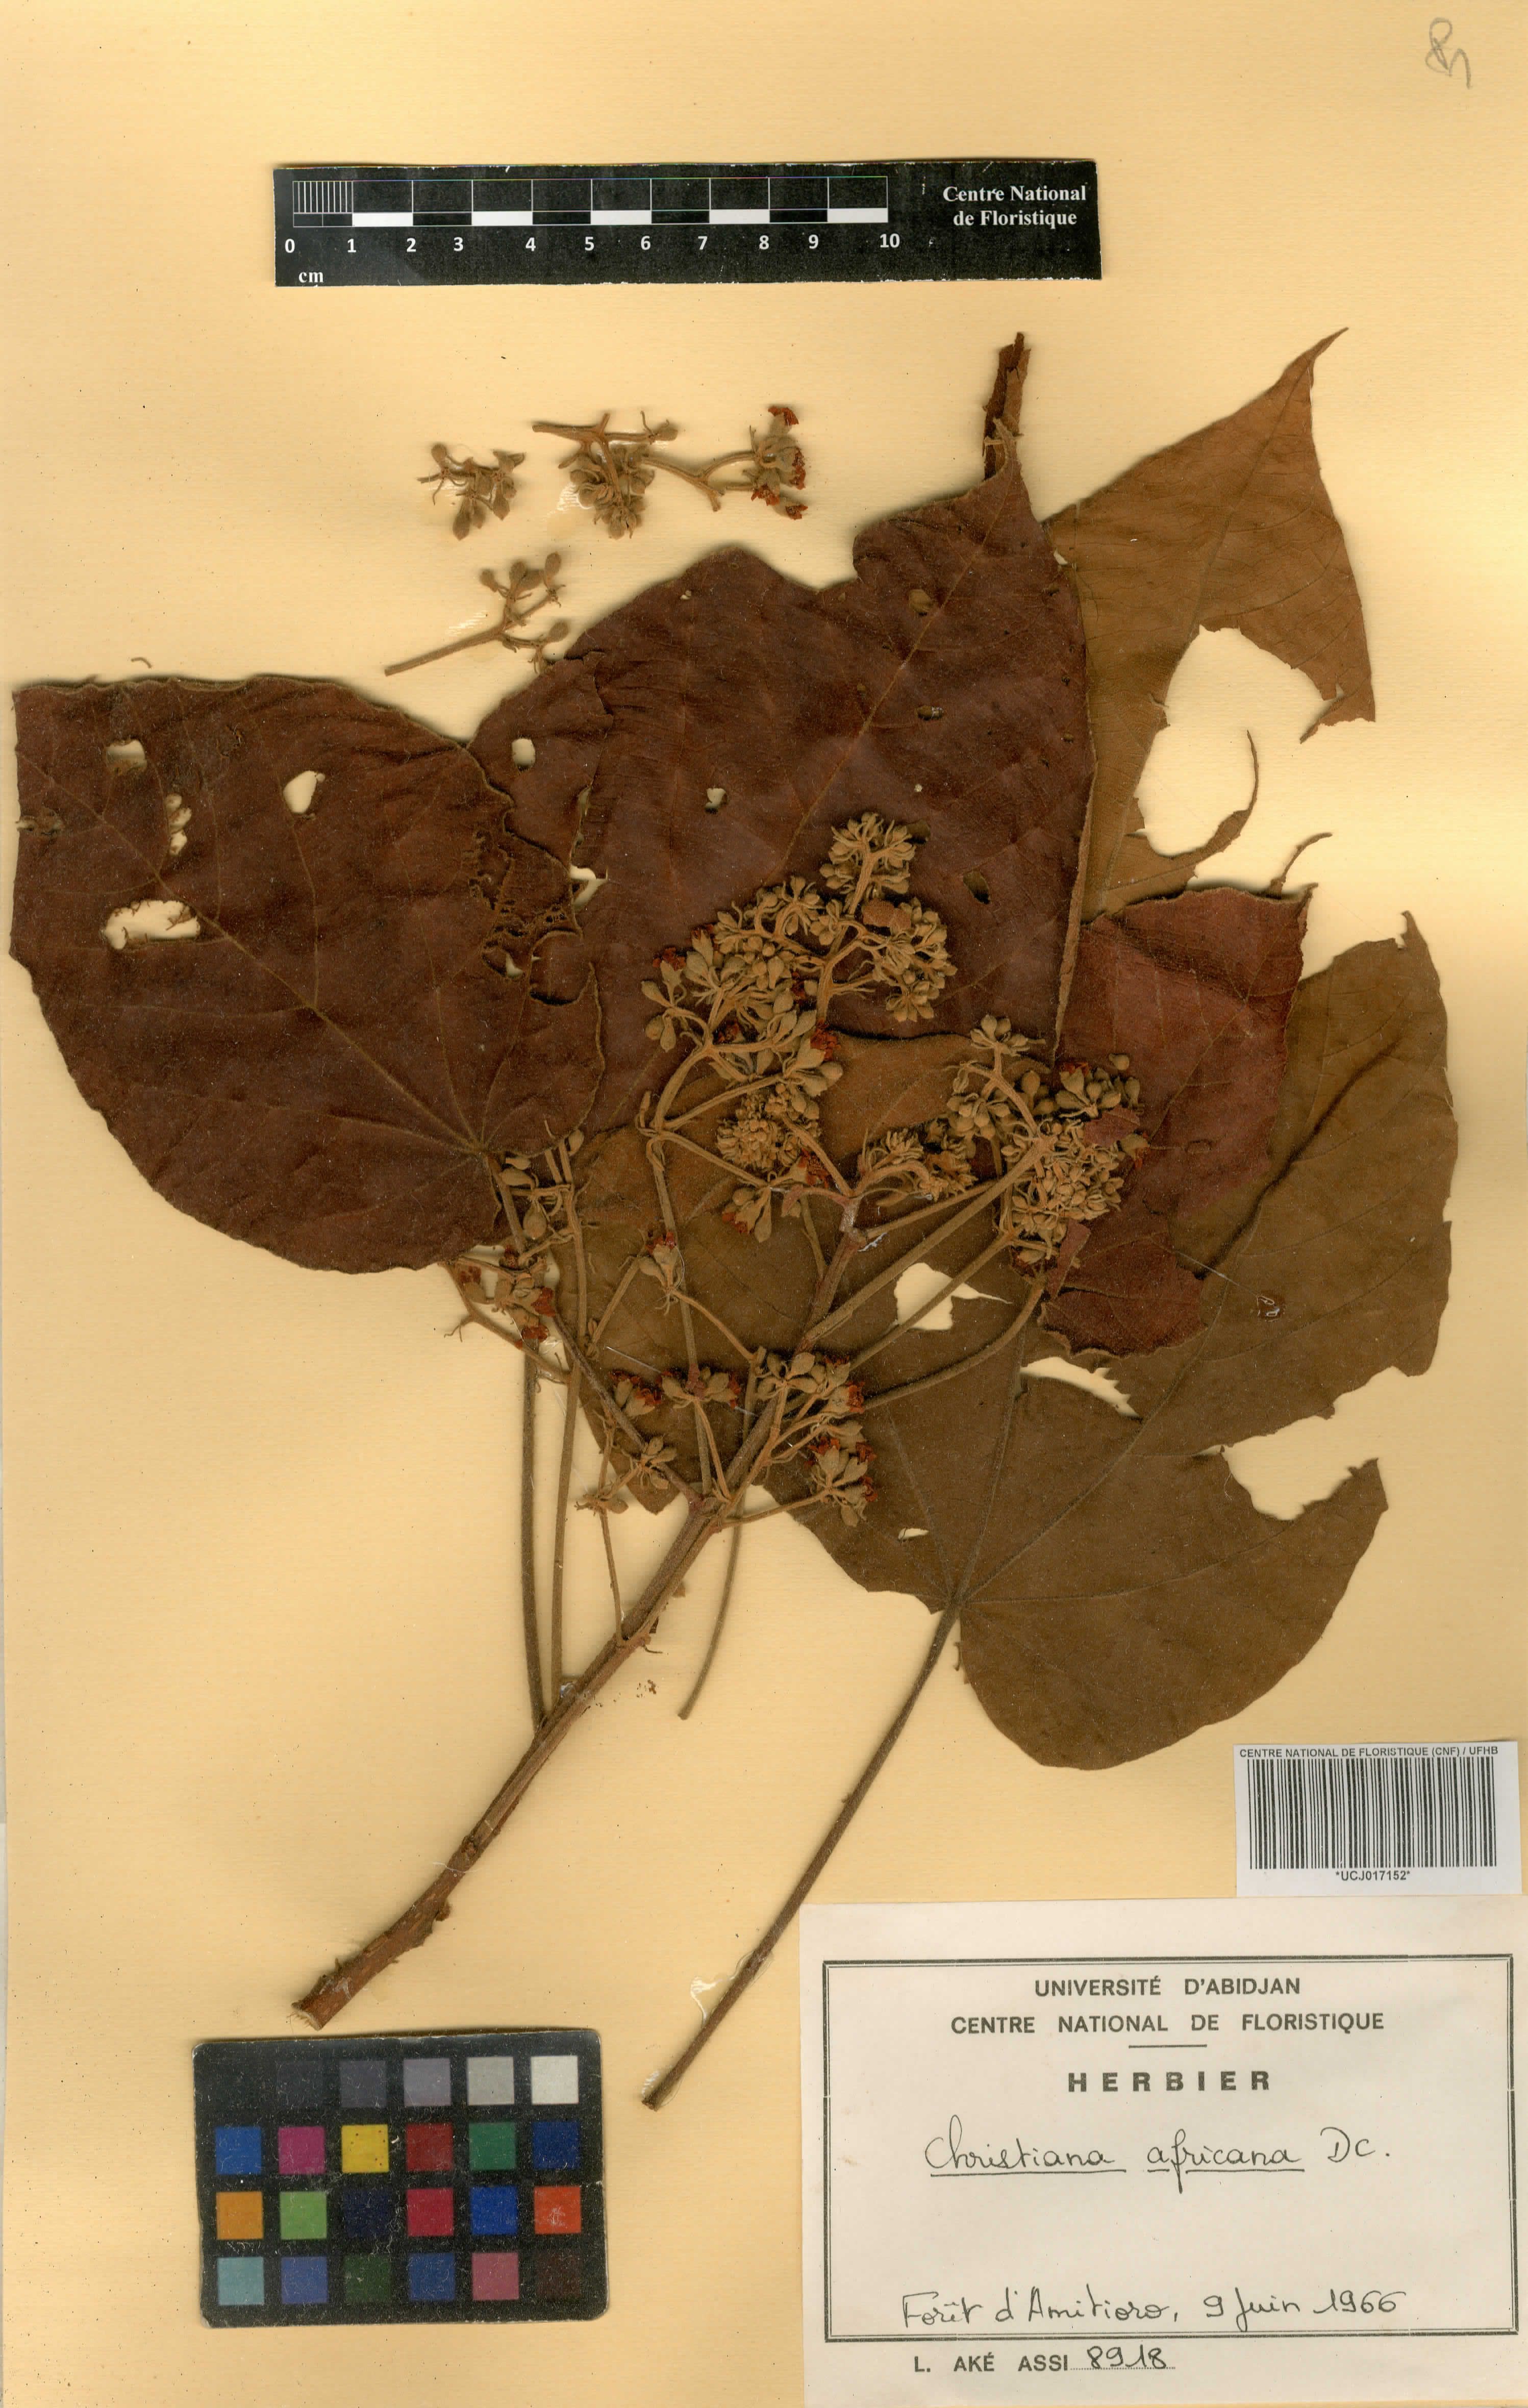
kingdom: Plantae
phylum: Tracheophyta
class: Magnoliopsida
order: Malvales
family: Malvaceae
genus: Christiana
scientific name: Christiana africana
